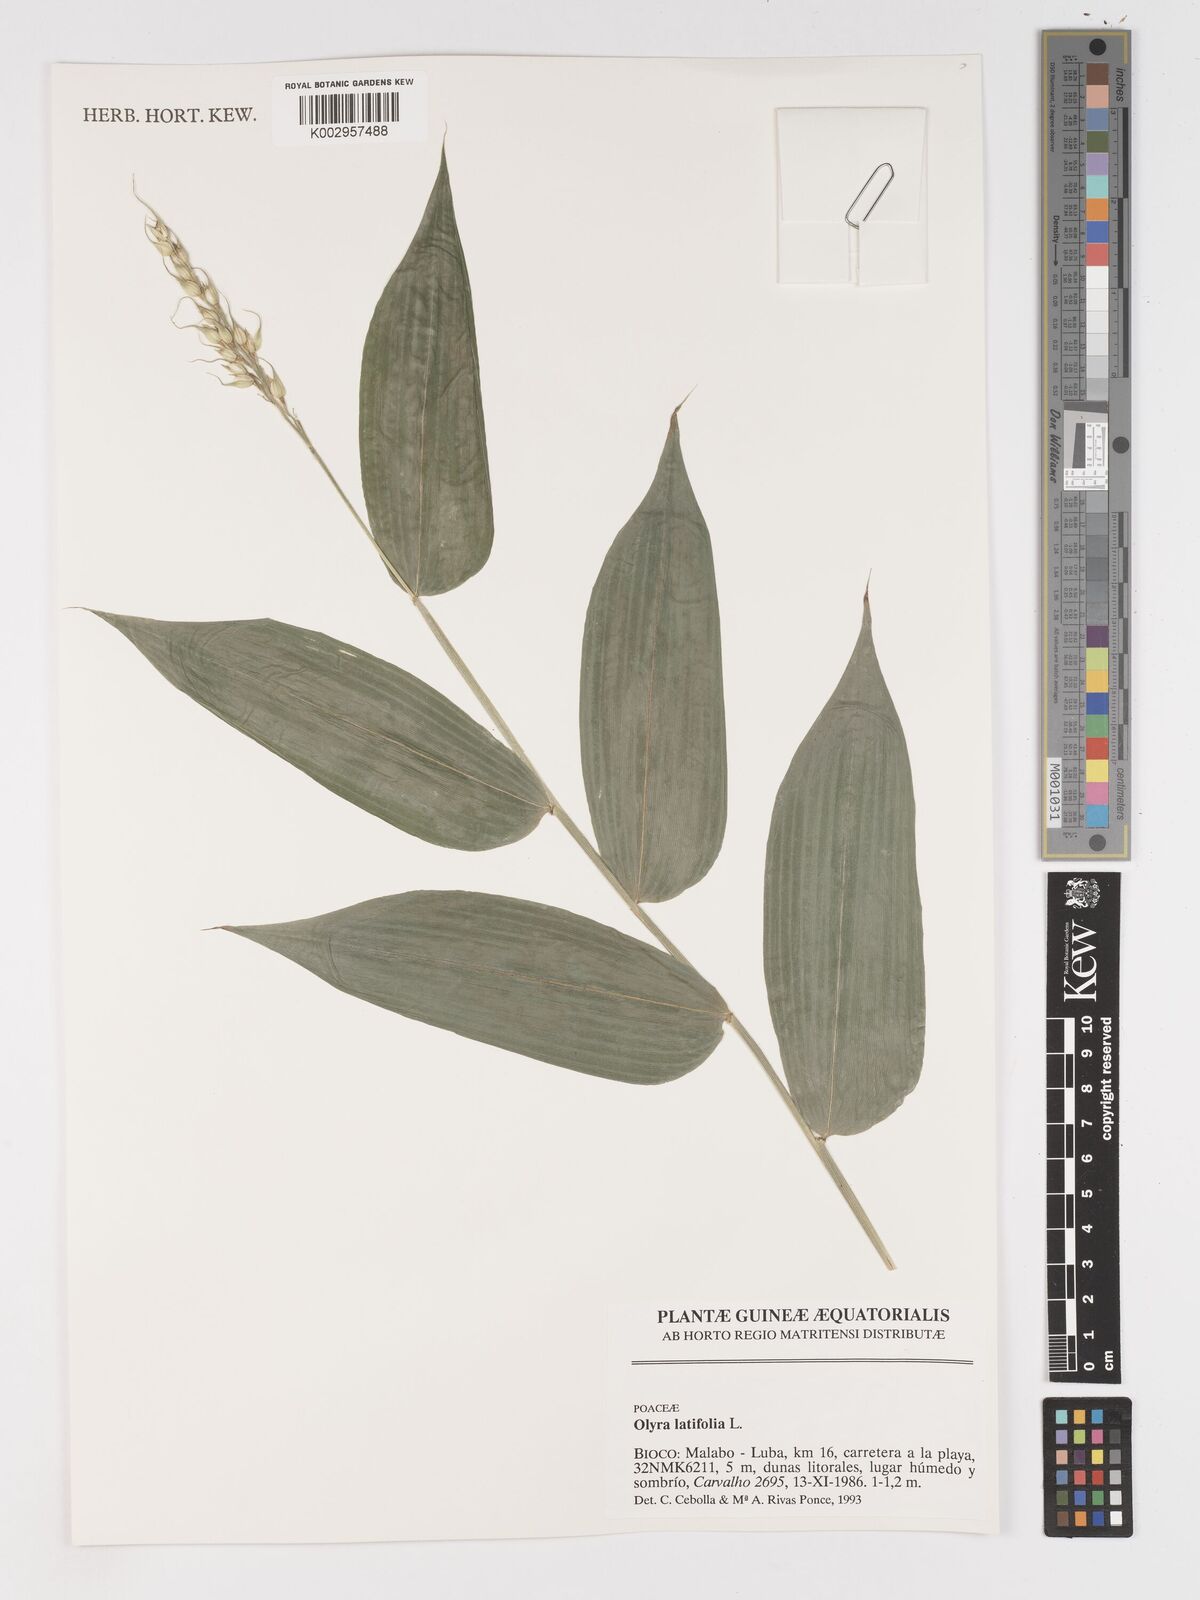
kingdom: Plantae
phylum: Tracheophyta
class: Liliopsida
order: Poales
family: Poaceae
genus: Olyra
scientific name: Olyra latifolia
